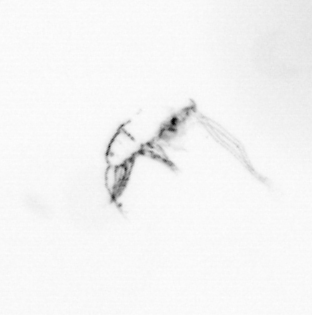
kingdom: Chromista
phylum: Ochrophyta
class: Bacillariophyceae
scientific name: Bacillariophyceae
